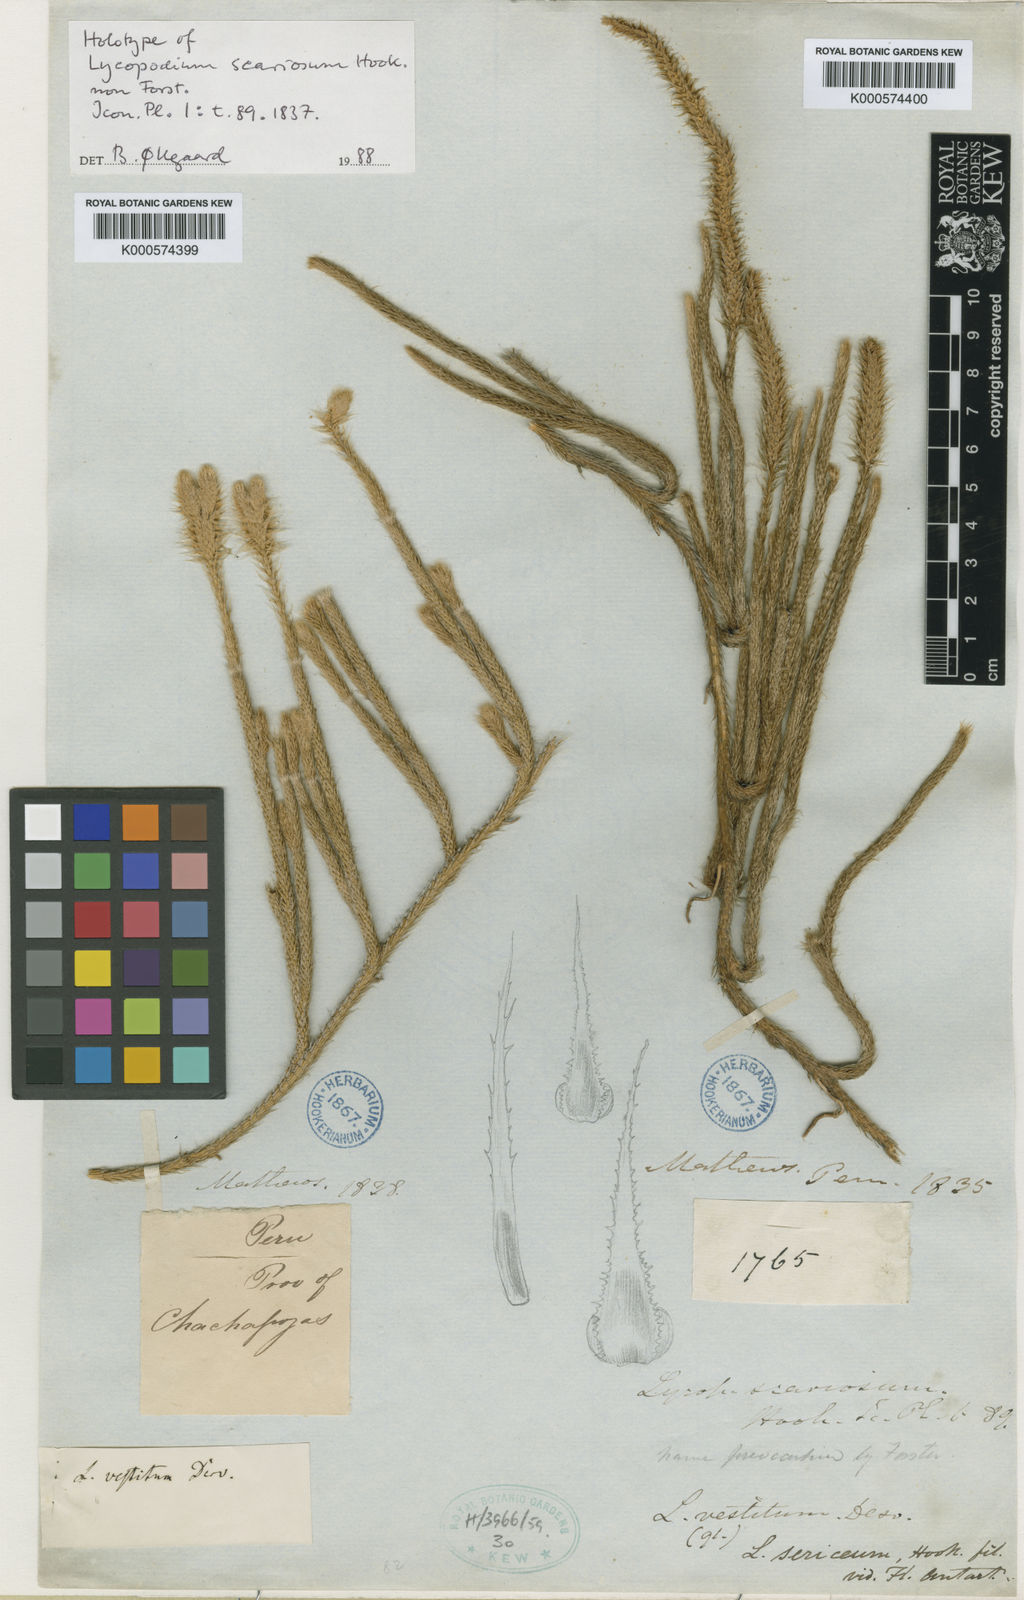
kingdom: Plantae
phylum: Tracheophyta
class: Lycopodiopsida
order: Lycopodiales
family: Lycopodiaceae
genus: Lycopodium
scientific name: Lycopodium
